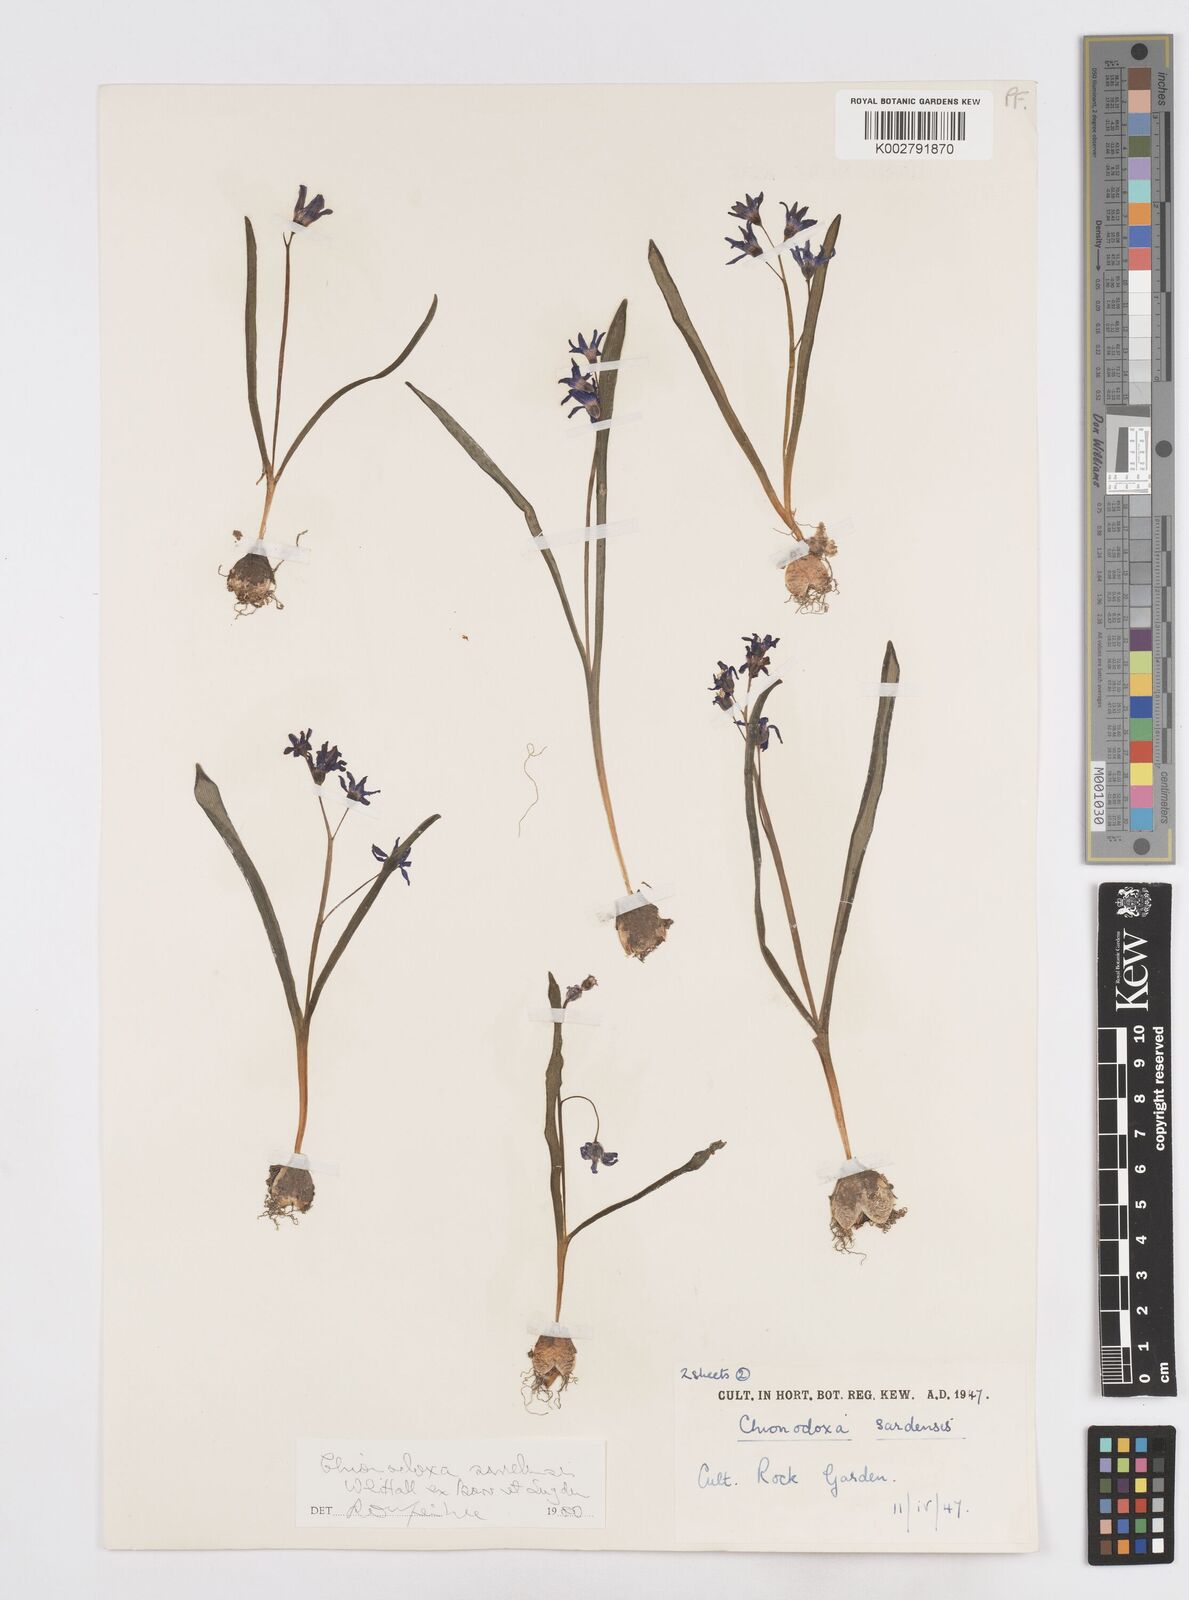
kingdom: Plantae
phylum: Tracheophyta
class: Liliopsida
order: Asparagales
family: Asparagaceae
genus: Scilla
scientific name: Scilla sardensis
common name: Lesser glory-of-the-snow
